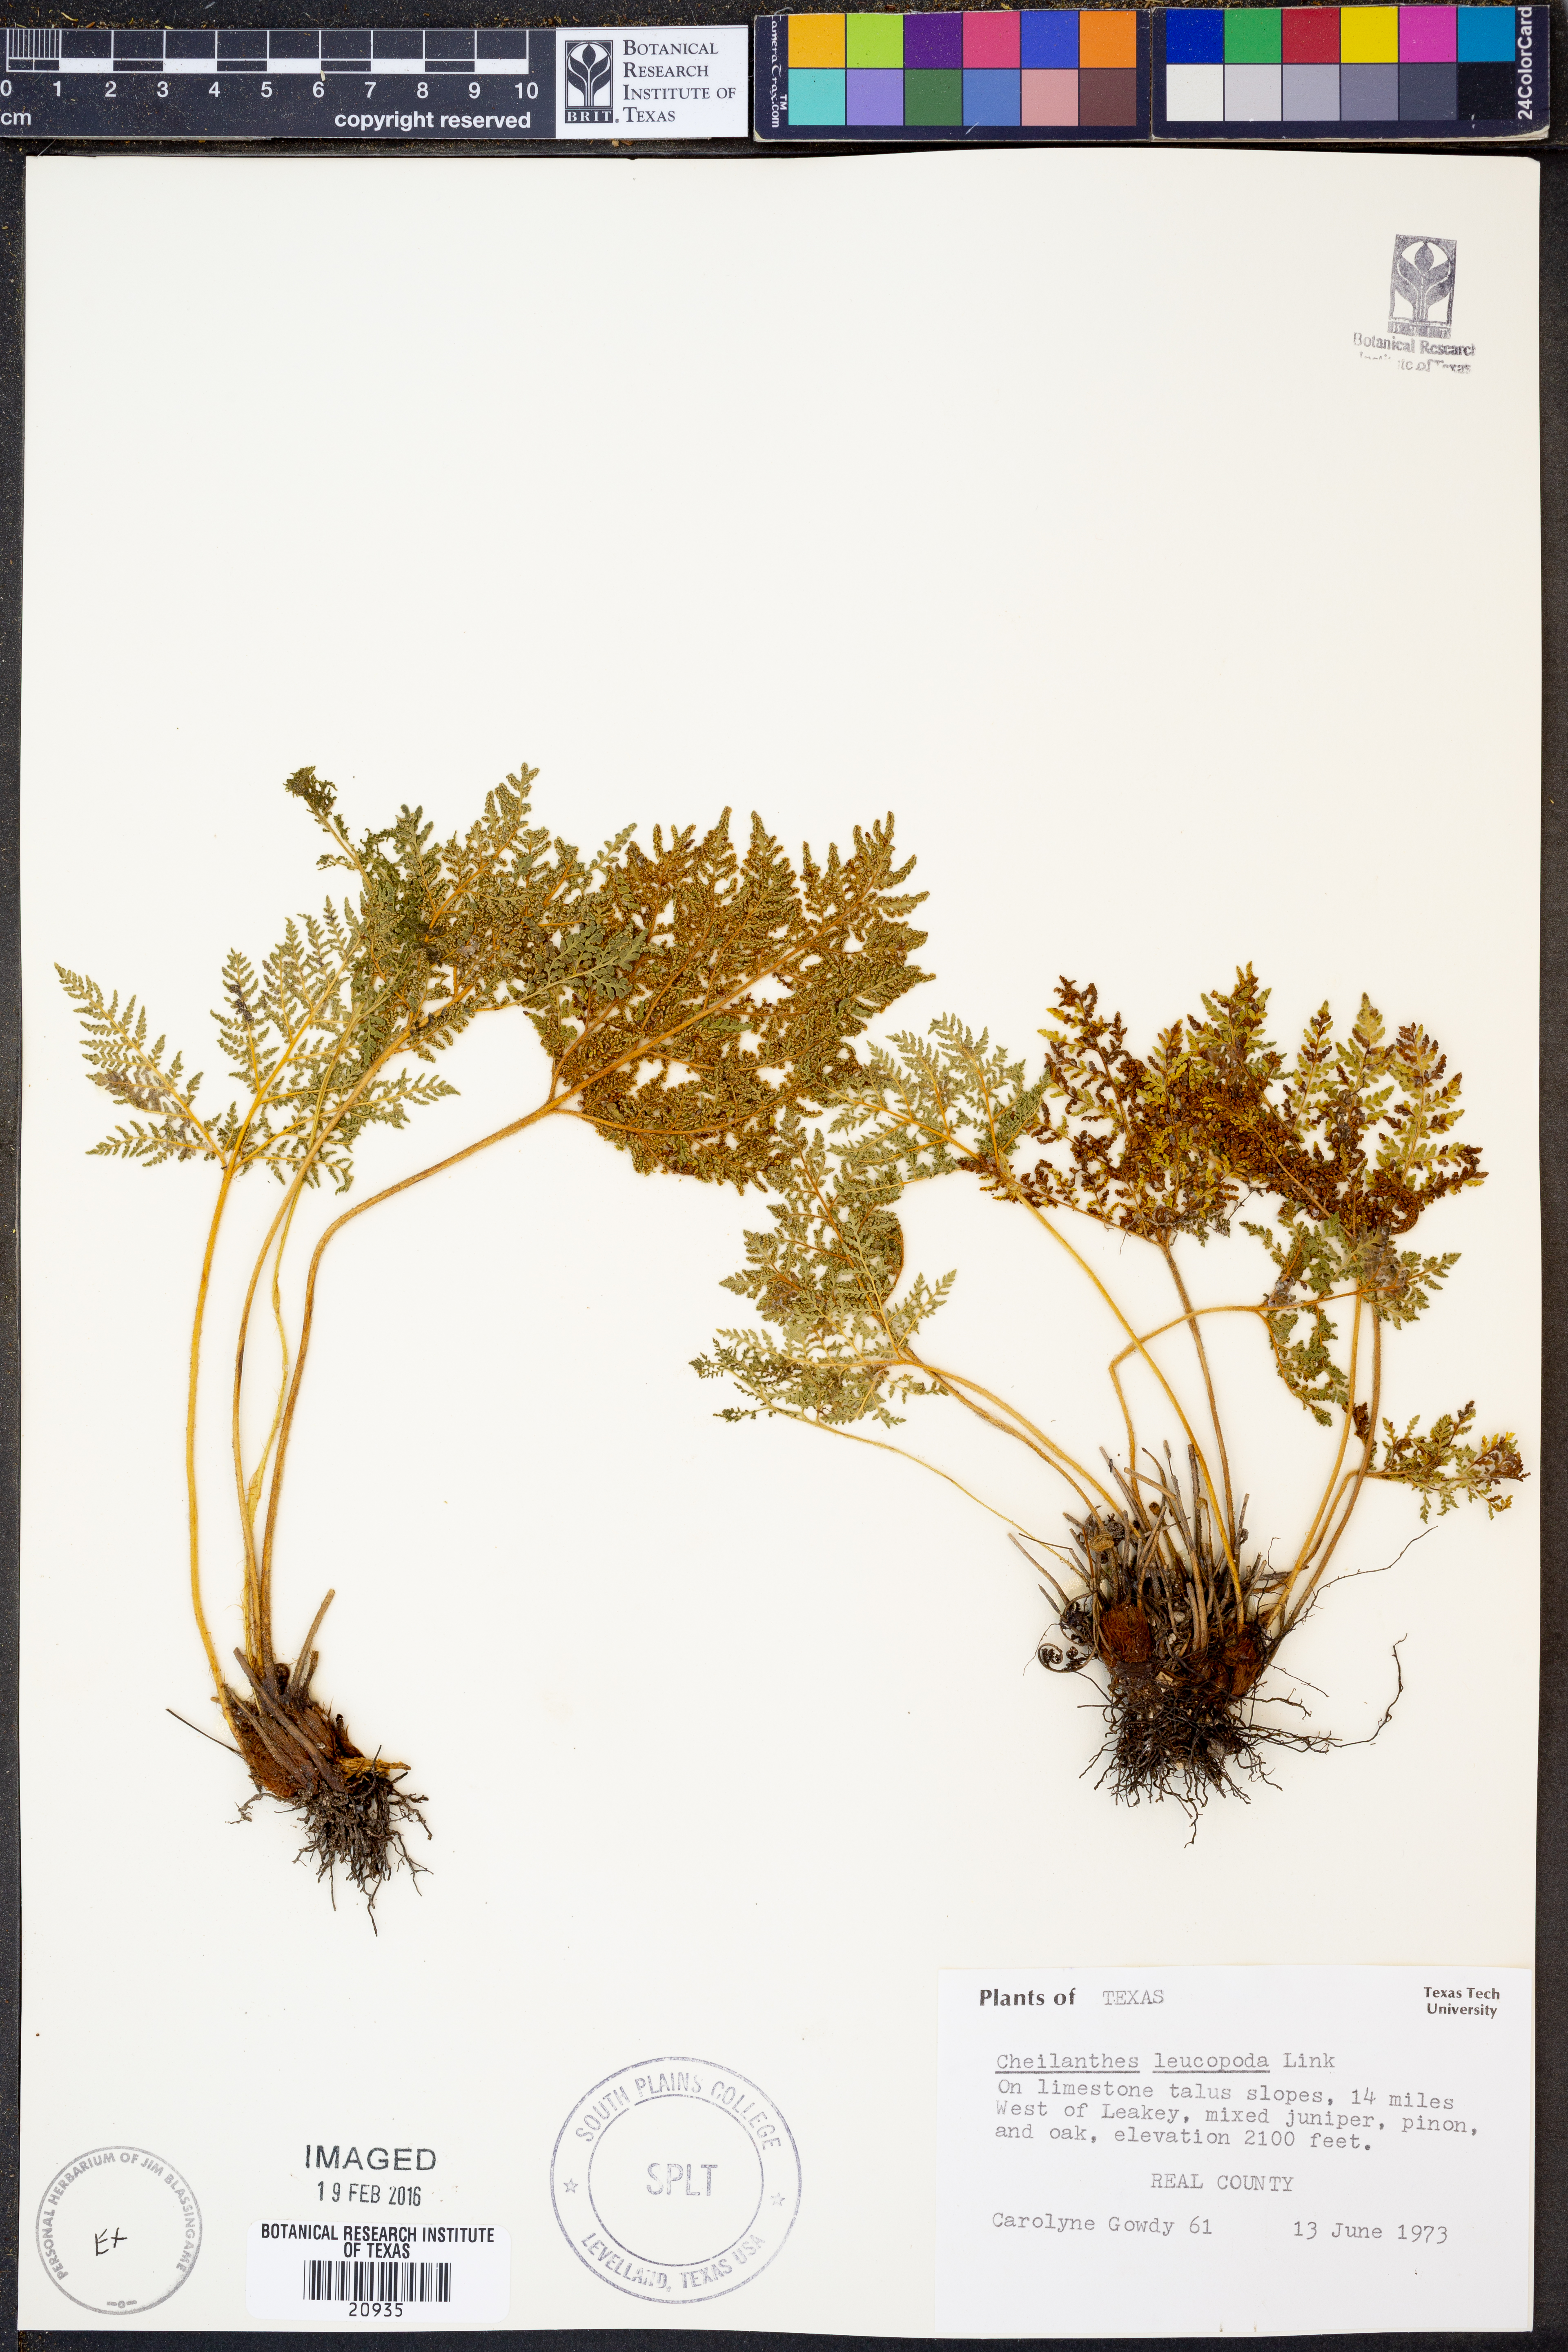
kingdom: Plantae
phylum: Tracheophyta
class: Polypodiopsida
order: Polypodiales
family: Pteridaceae
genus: Cheilanthes
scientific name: Cheilanthes leucopoda
